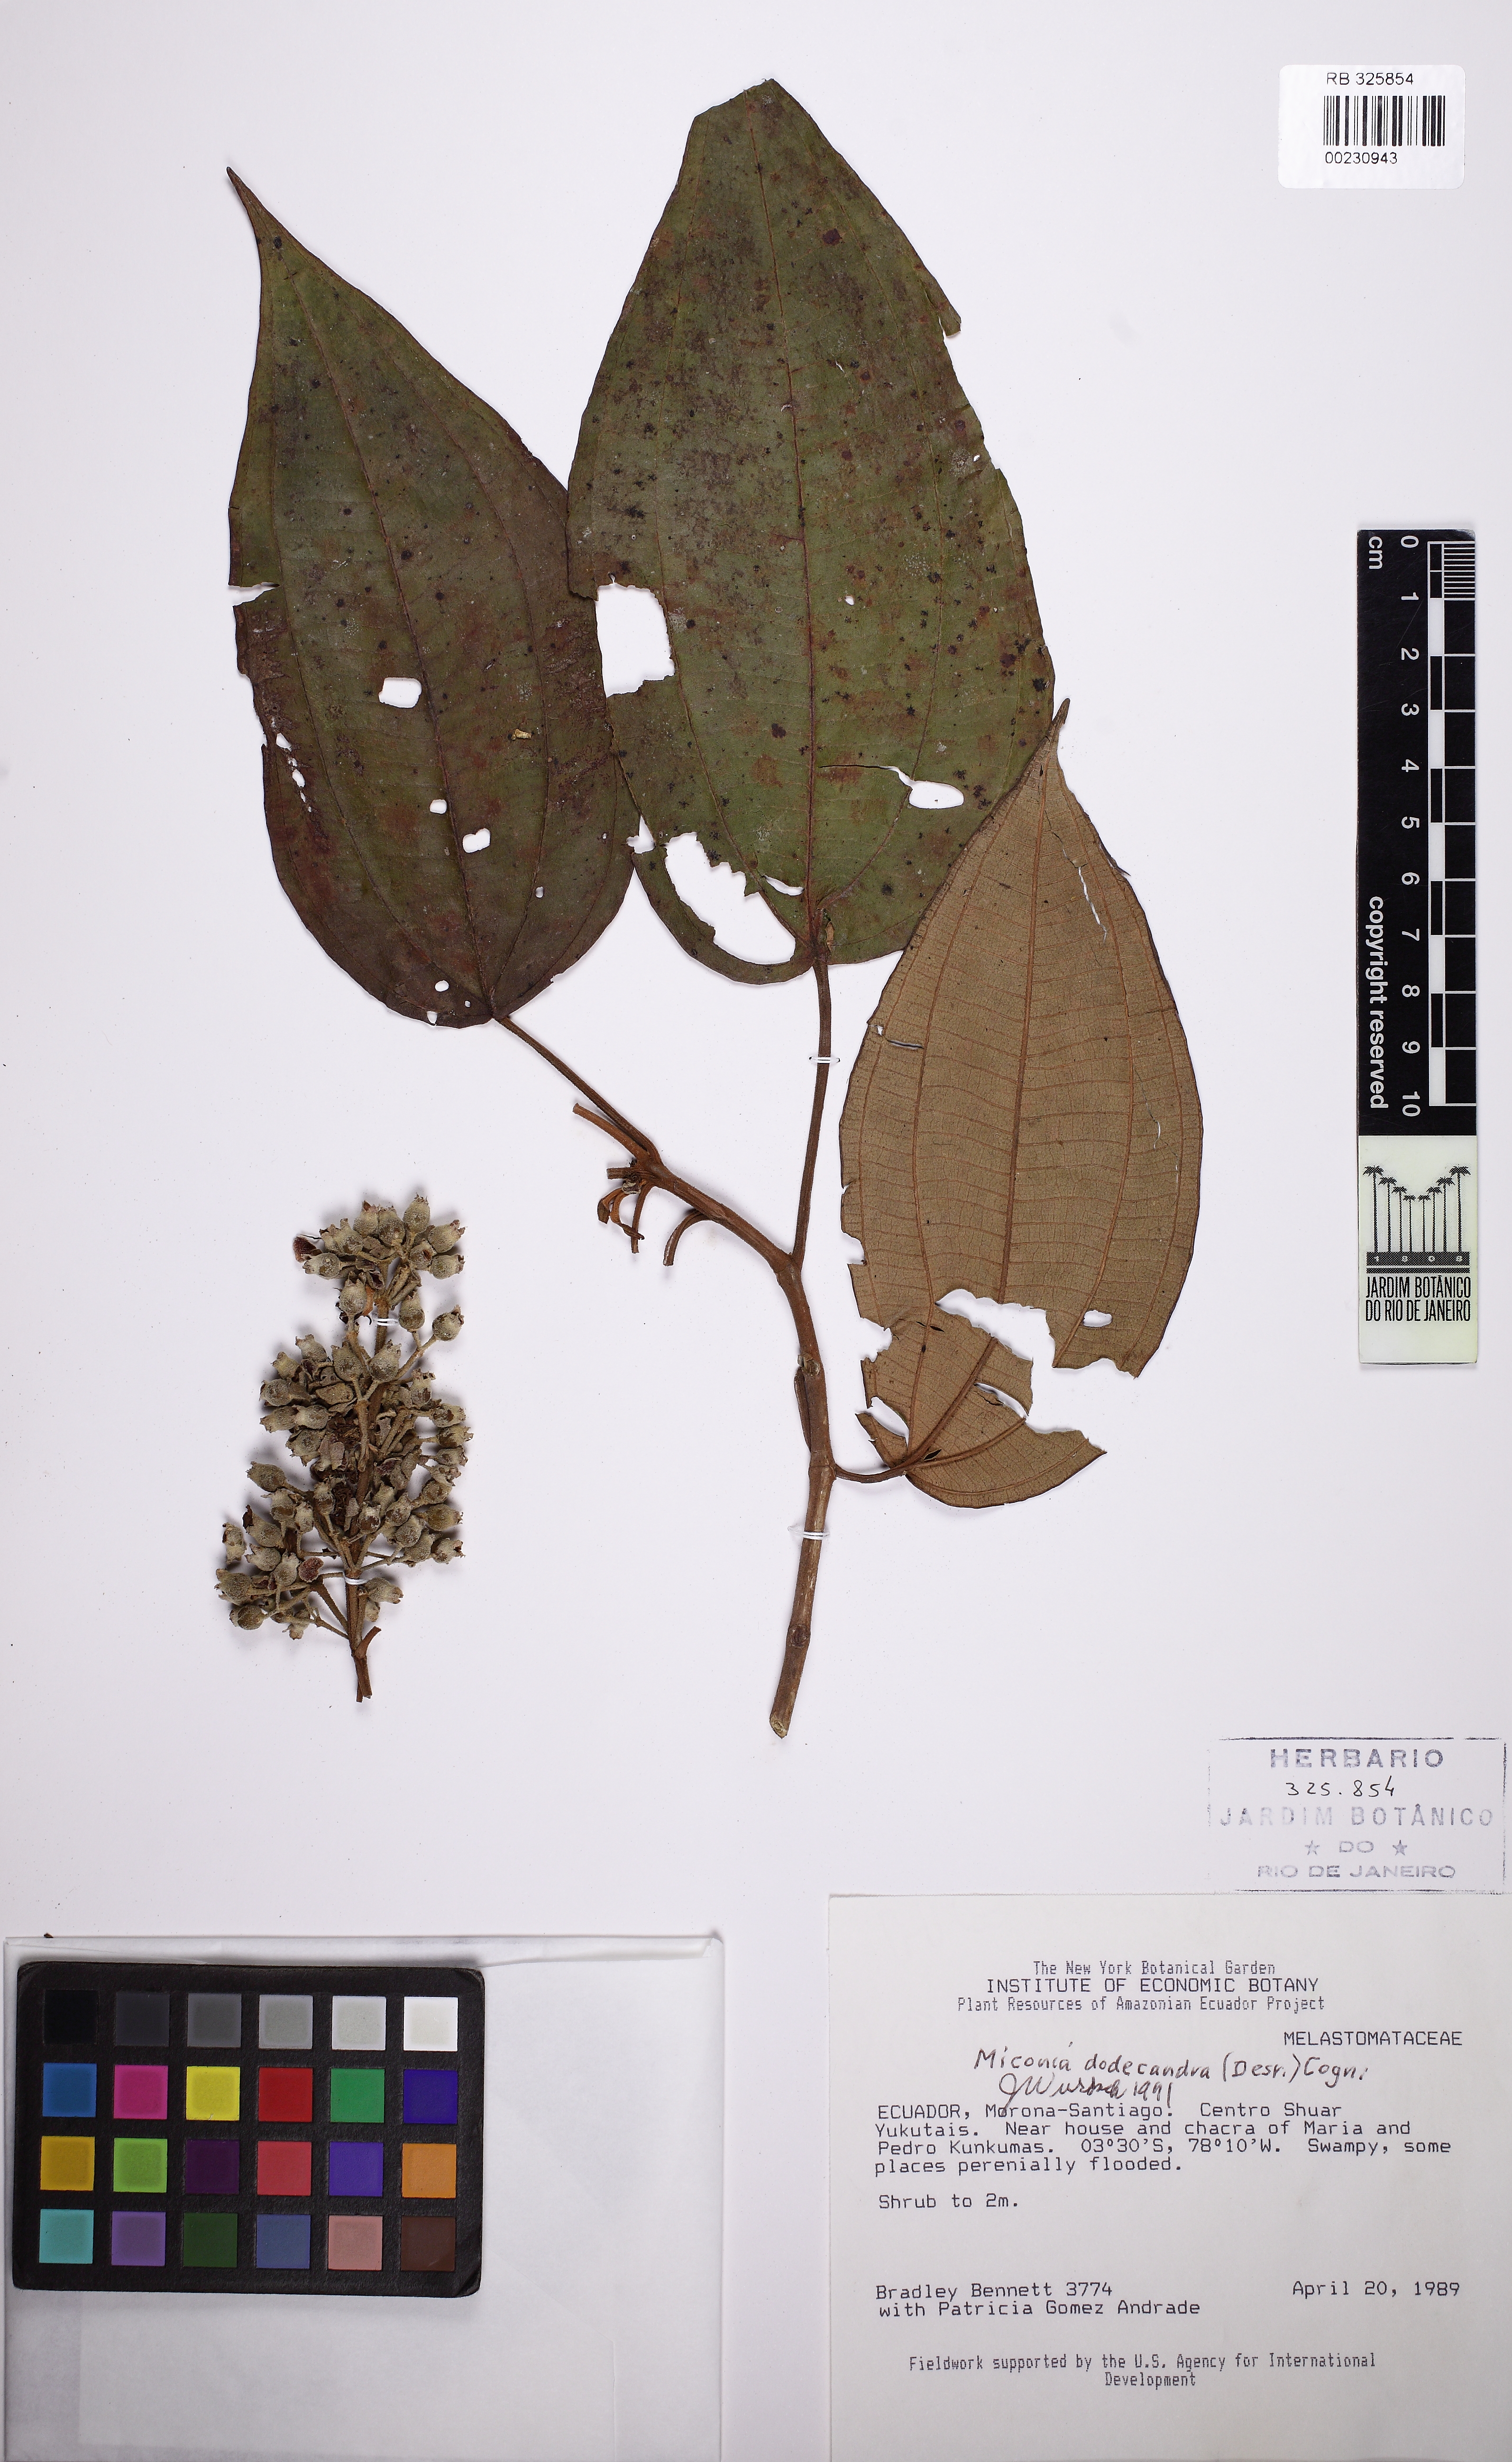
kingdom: Plantae
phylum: Tracheophyta
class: Magnoliopsida
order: Myrtales
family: Melastomataceae
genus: Miconia
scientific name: Miconia dodecandra
